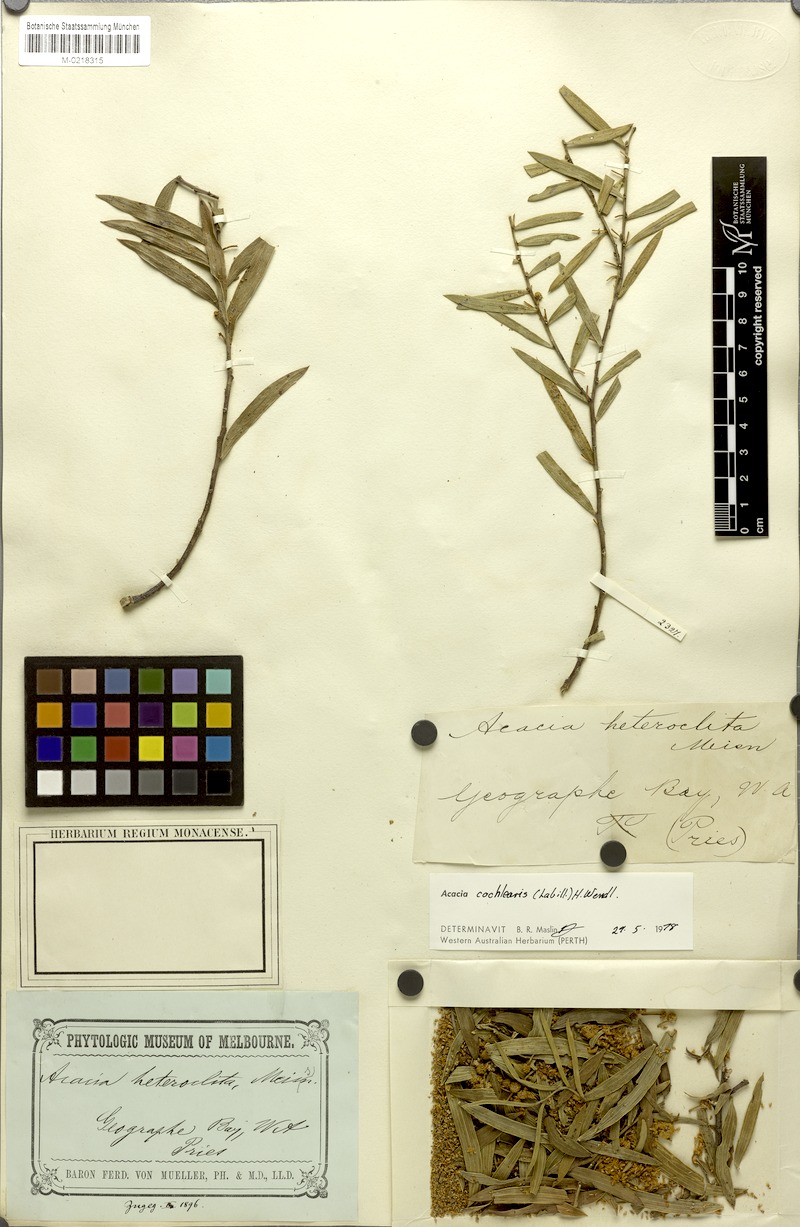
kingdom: Plantae
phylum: Tracheophyta
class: Magnoliopsida
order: Fabales
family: Fabaceae
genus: Acacia
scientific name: Acacia cochlearis
